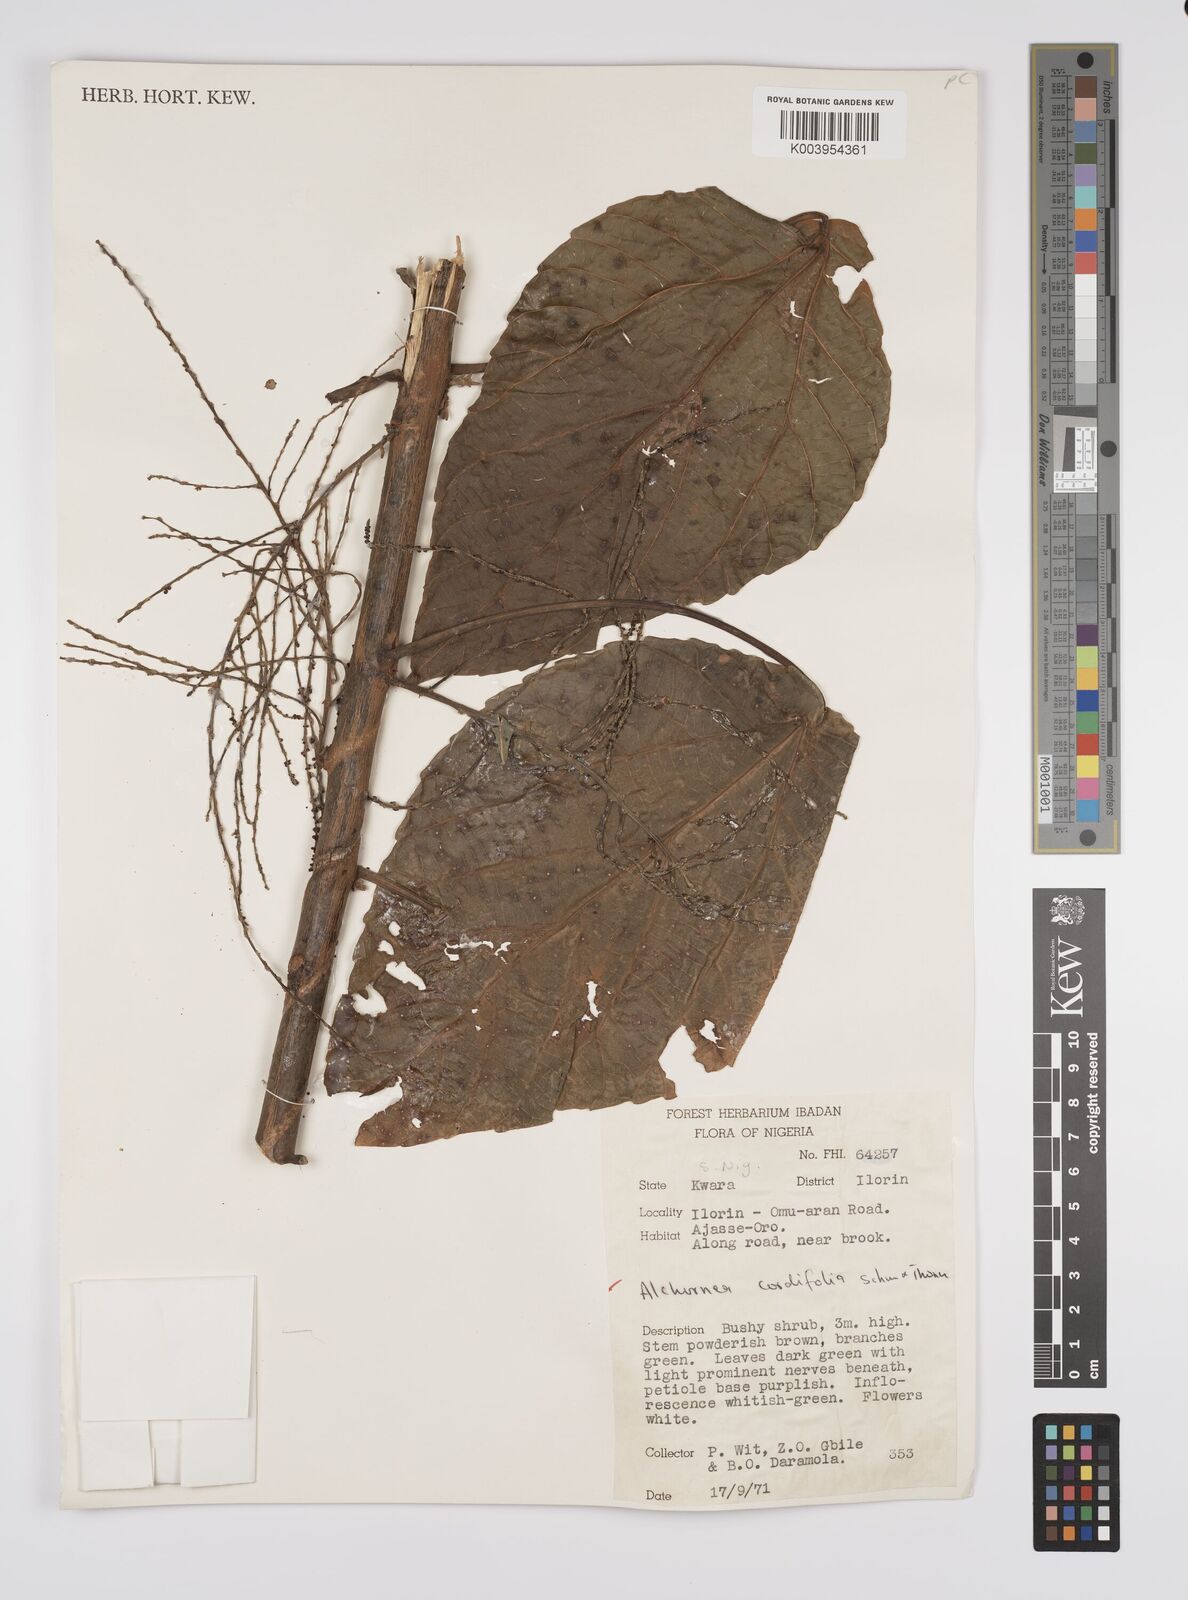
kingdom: Plantae
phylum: Tracheophyta
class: Magnoliopsida
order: Malpighiales
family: Euphorbiaceae
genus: Alchornea
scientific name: Alchornea cordifolia
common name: Christmasbush
